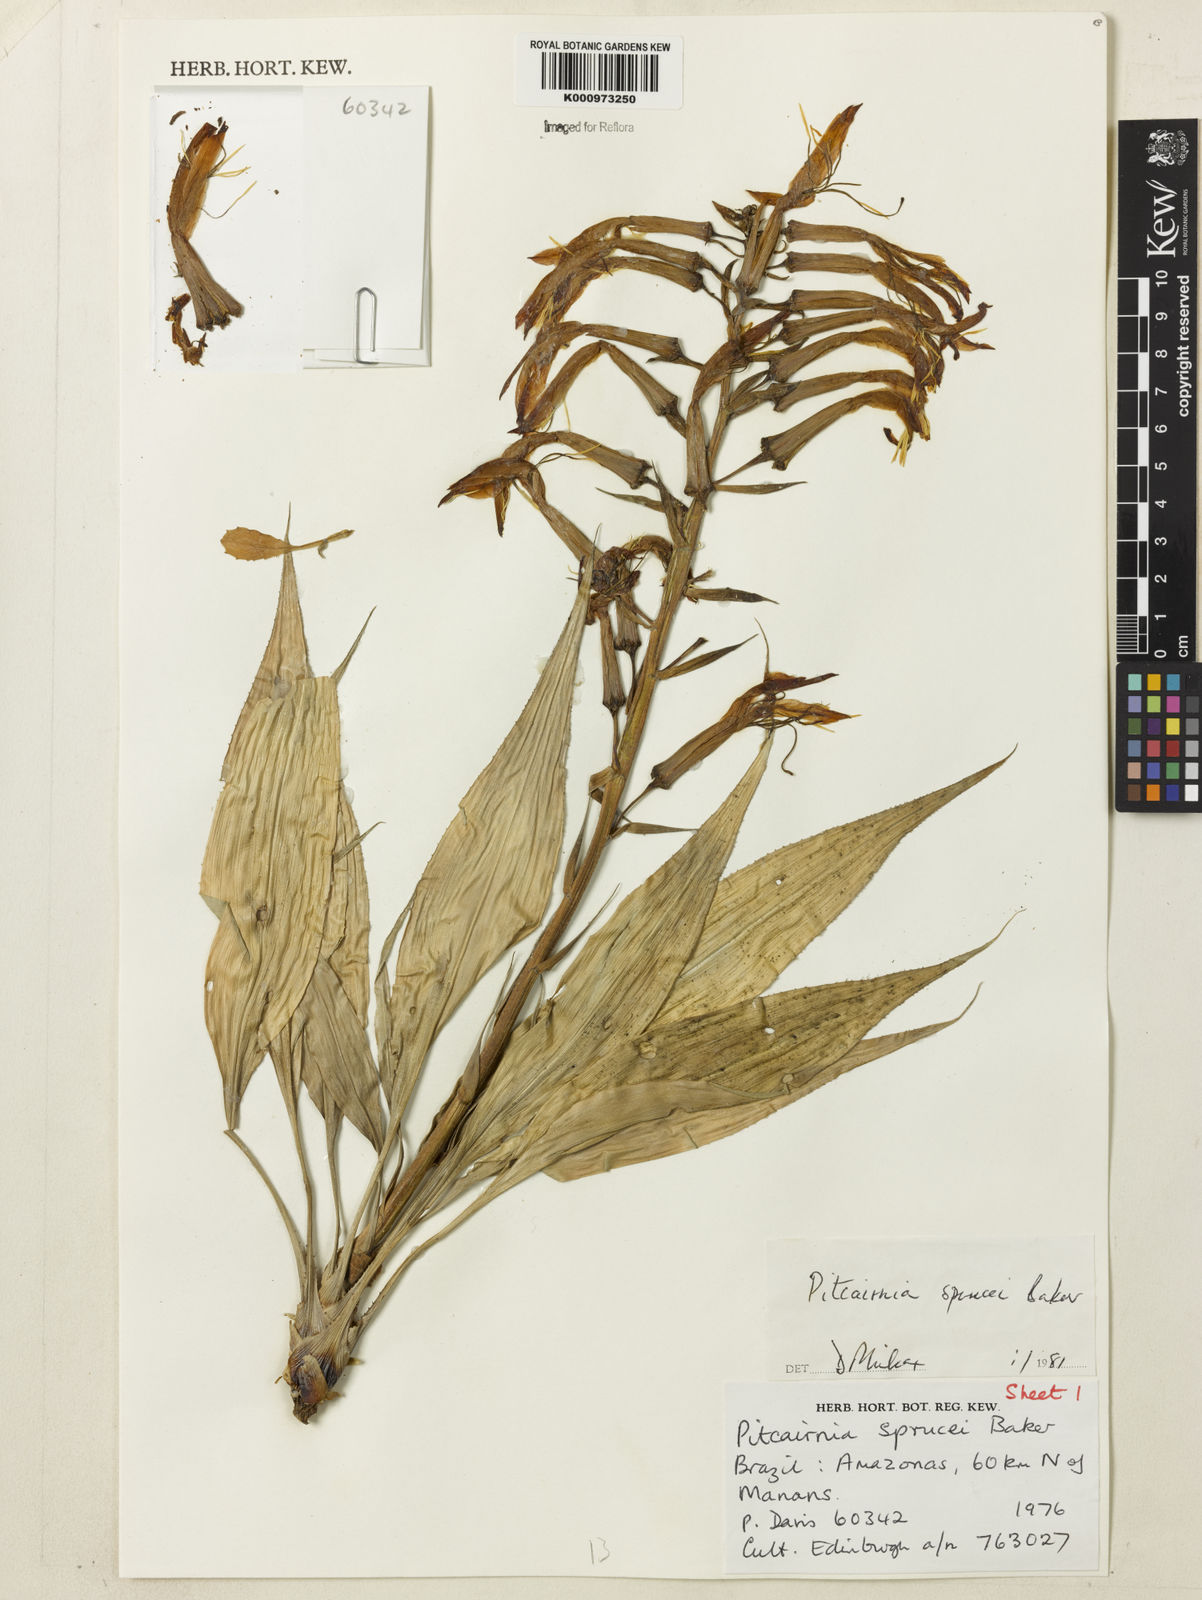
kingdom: Plantae
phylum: Tracheophyta
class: Liliopsida
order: Poales
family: Bromeliaceae
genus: Pitcairnia
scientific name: Pitcairnia sprucei
